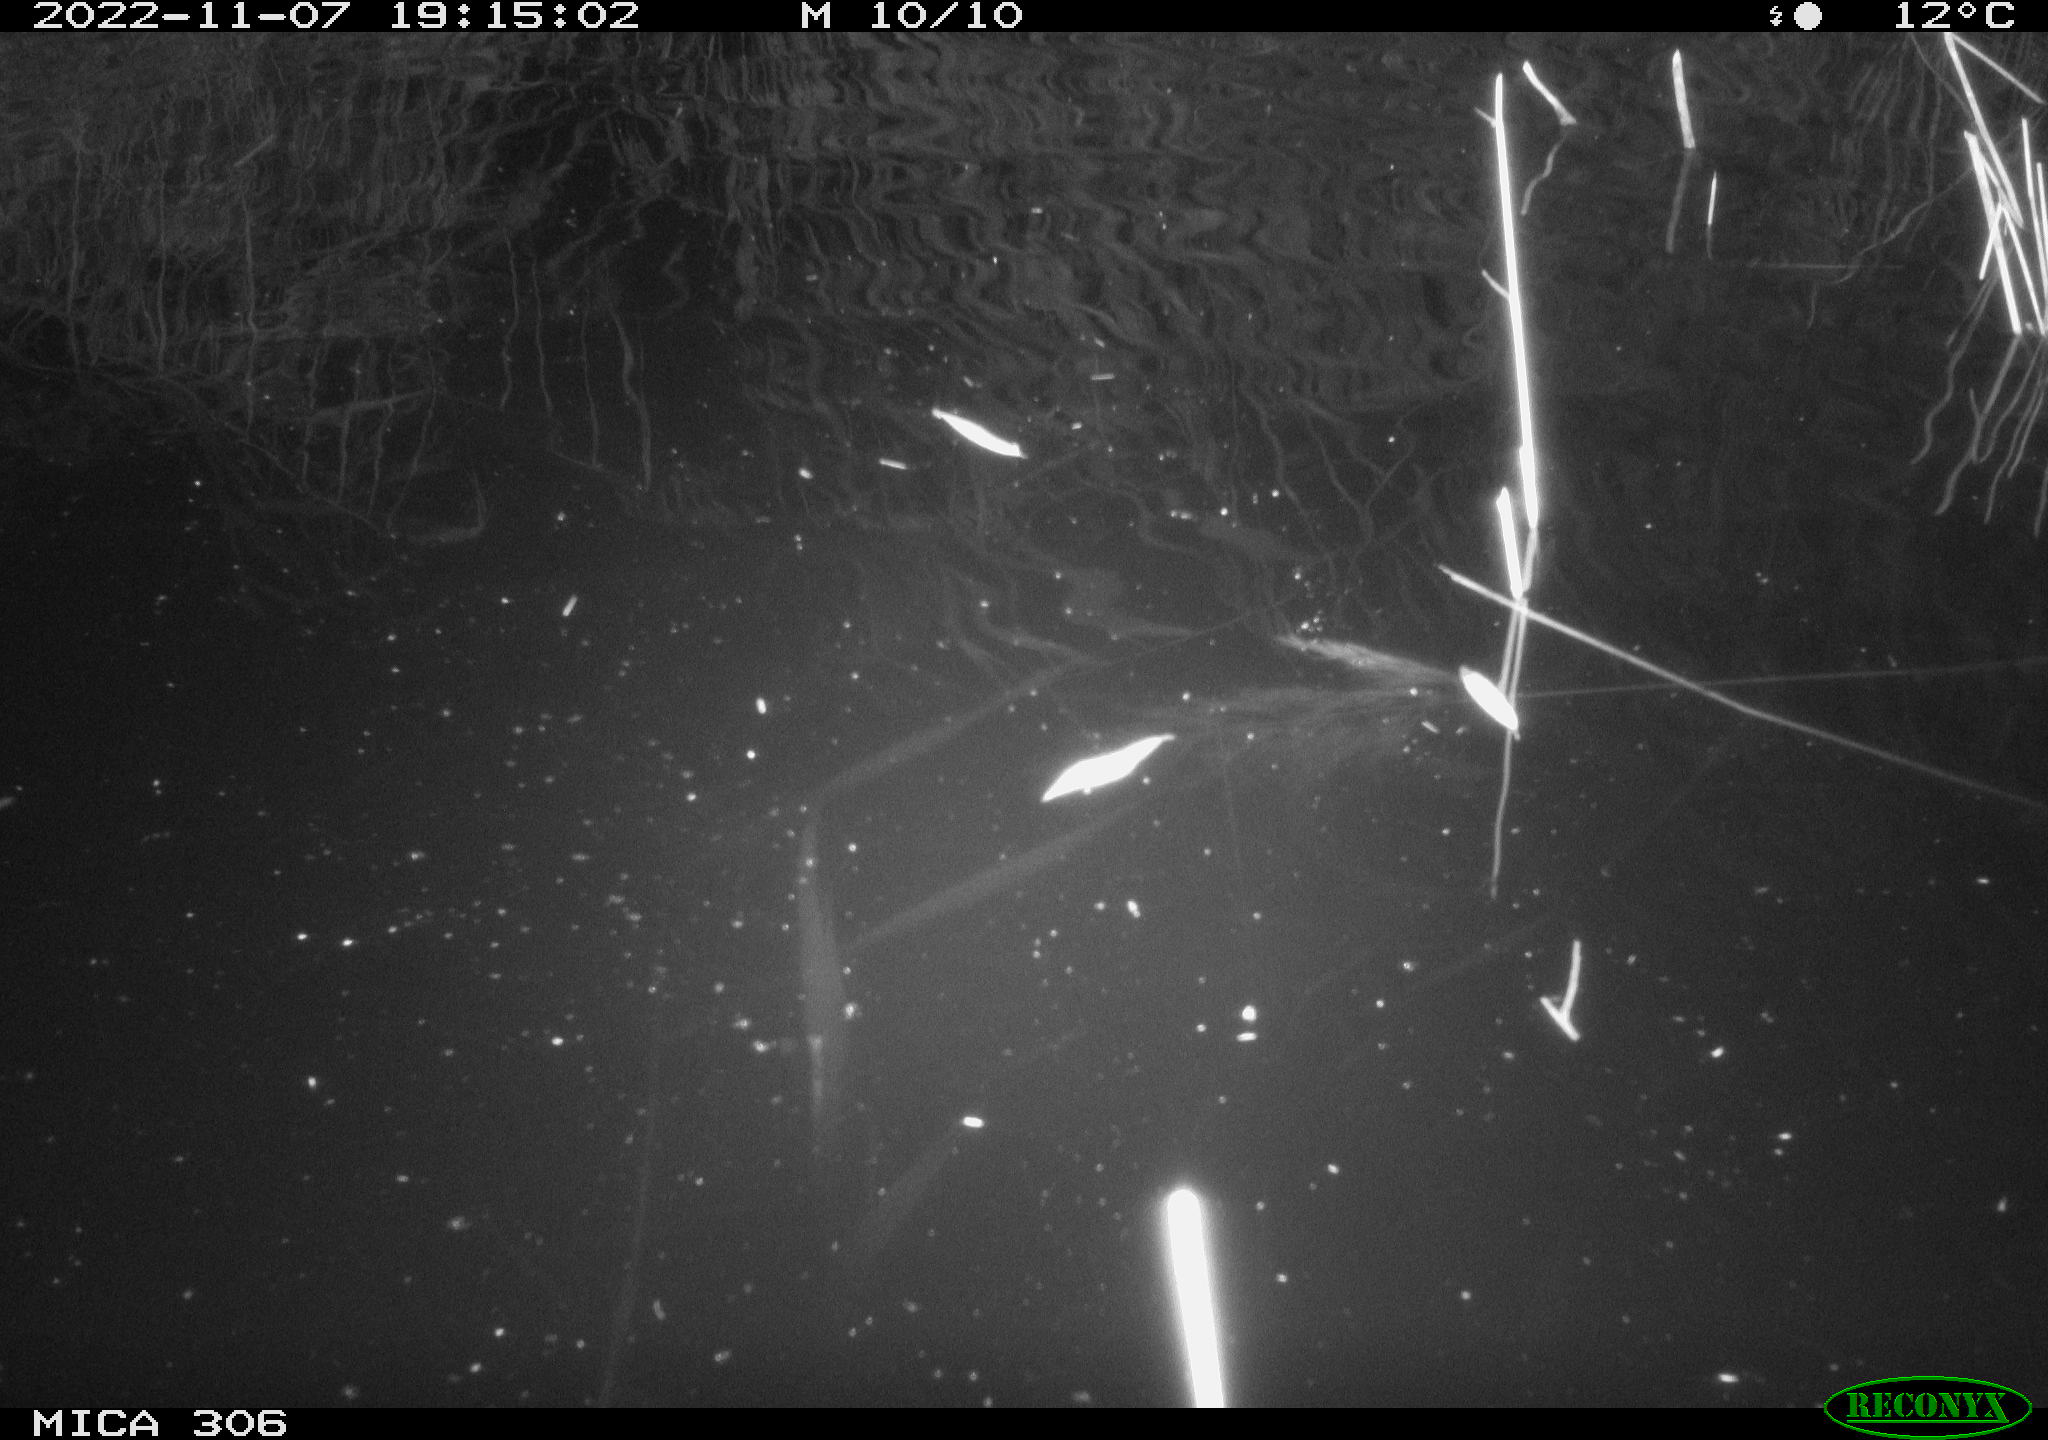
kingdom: Animalia
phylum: Chordata
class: Mammalia
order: Rodentia
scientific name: Rodentia
